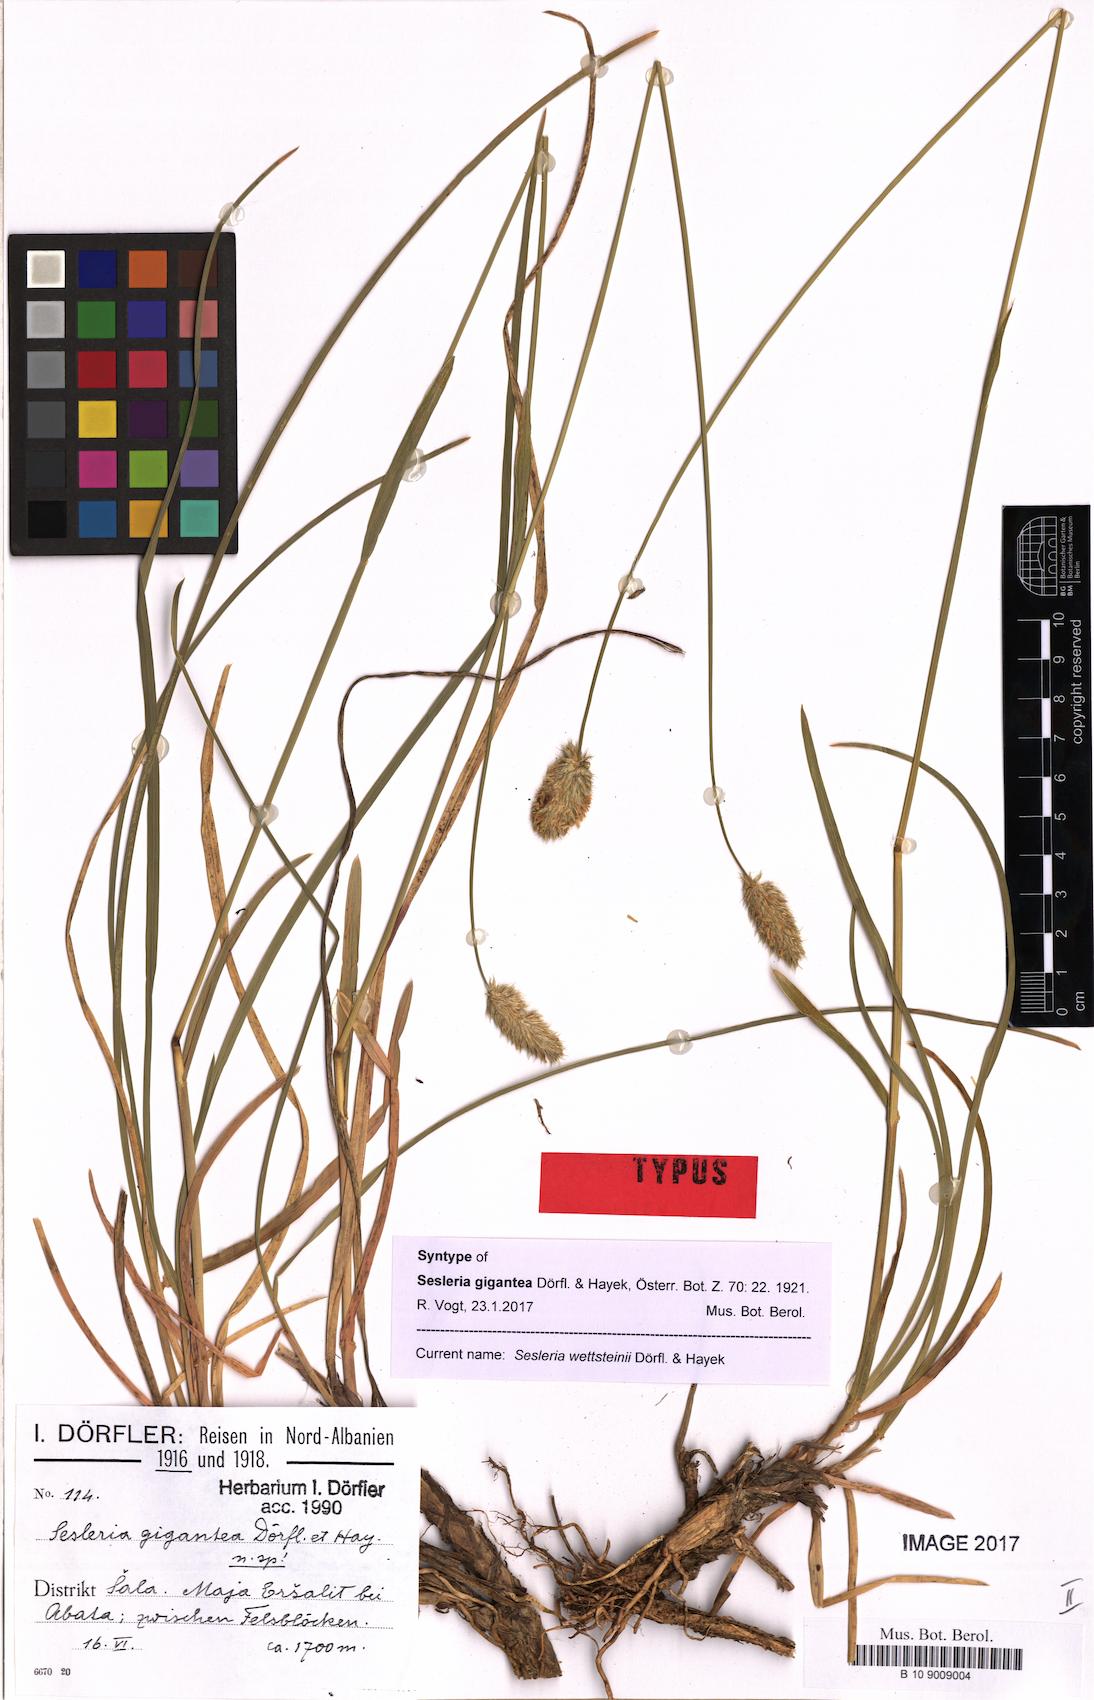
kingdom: Plantae
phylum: Tracheophyta
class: Liliopsida
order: Poales
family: Poaceae
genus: Sesleria
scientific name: Sesleria wettsteinii
